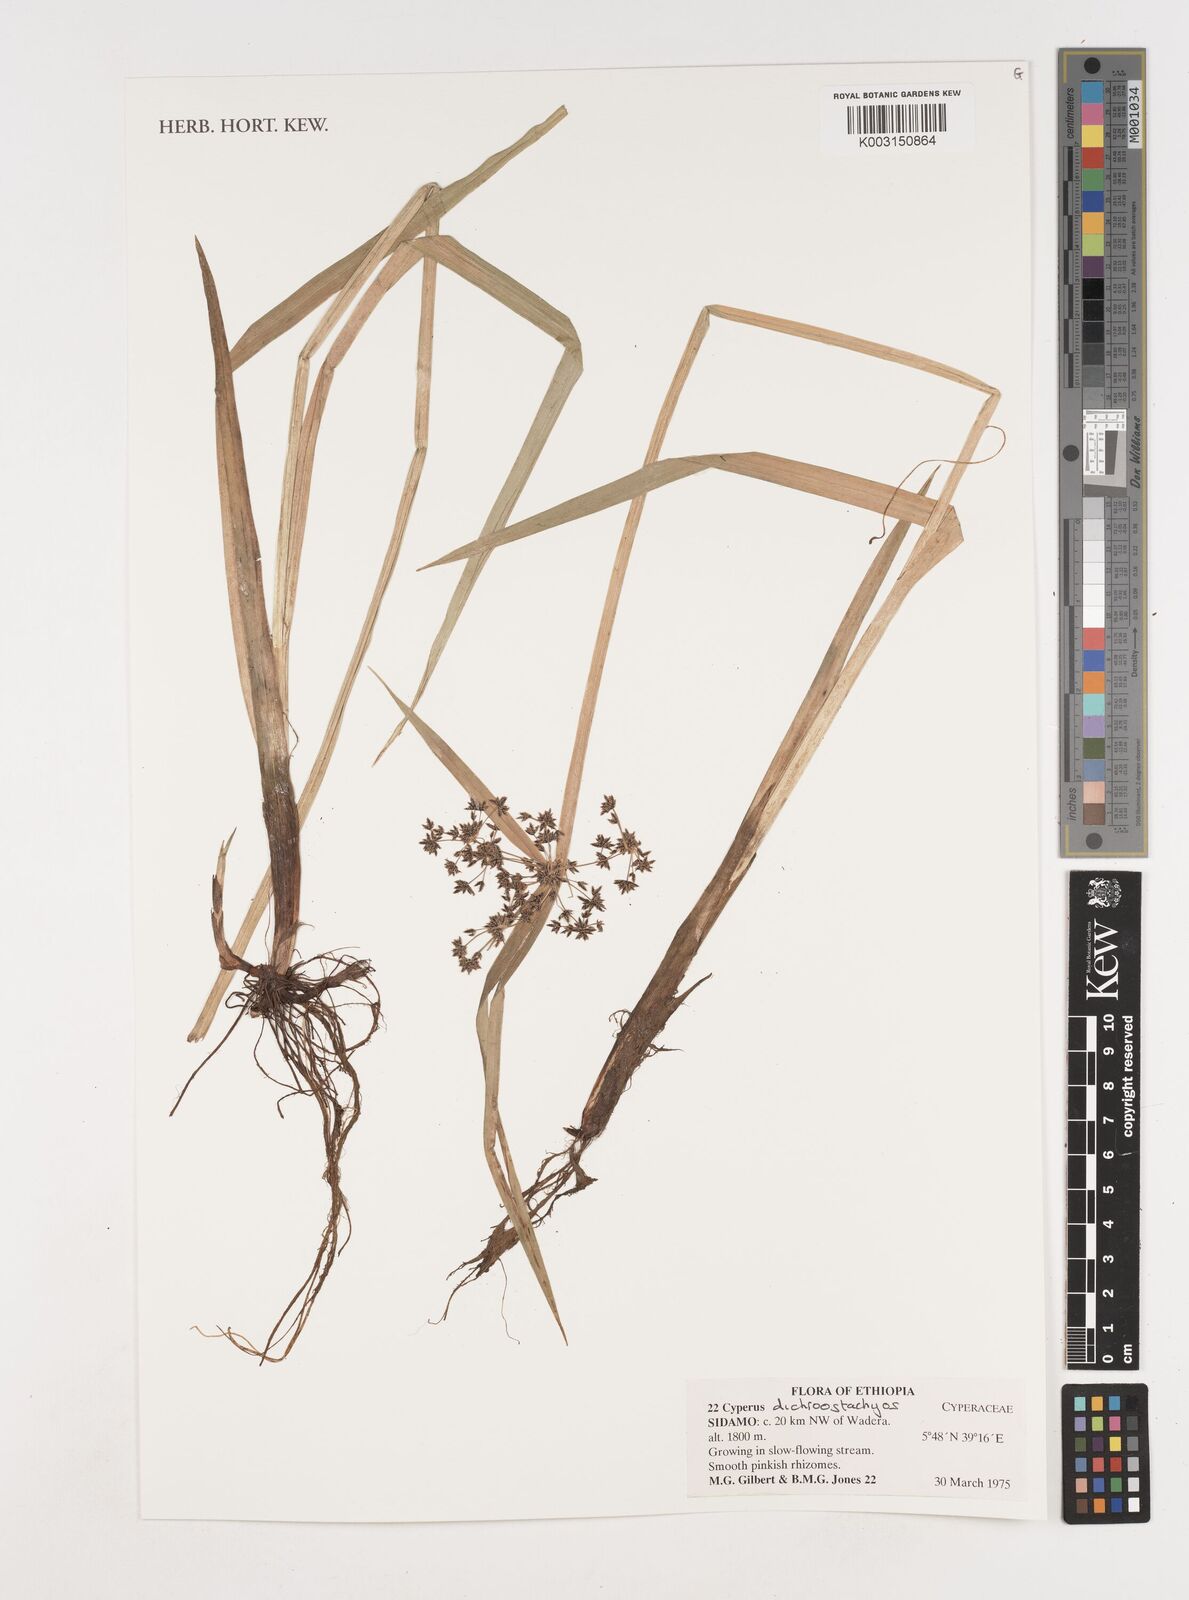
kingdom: Plantae
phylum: Tracheophyta
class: Liliopsida
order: Poales
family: Cyperaceae
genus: Cyperus
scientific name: Cyperus dichrostachyus
